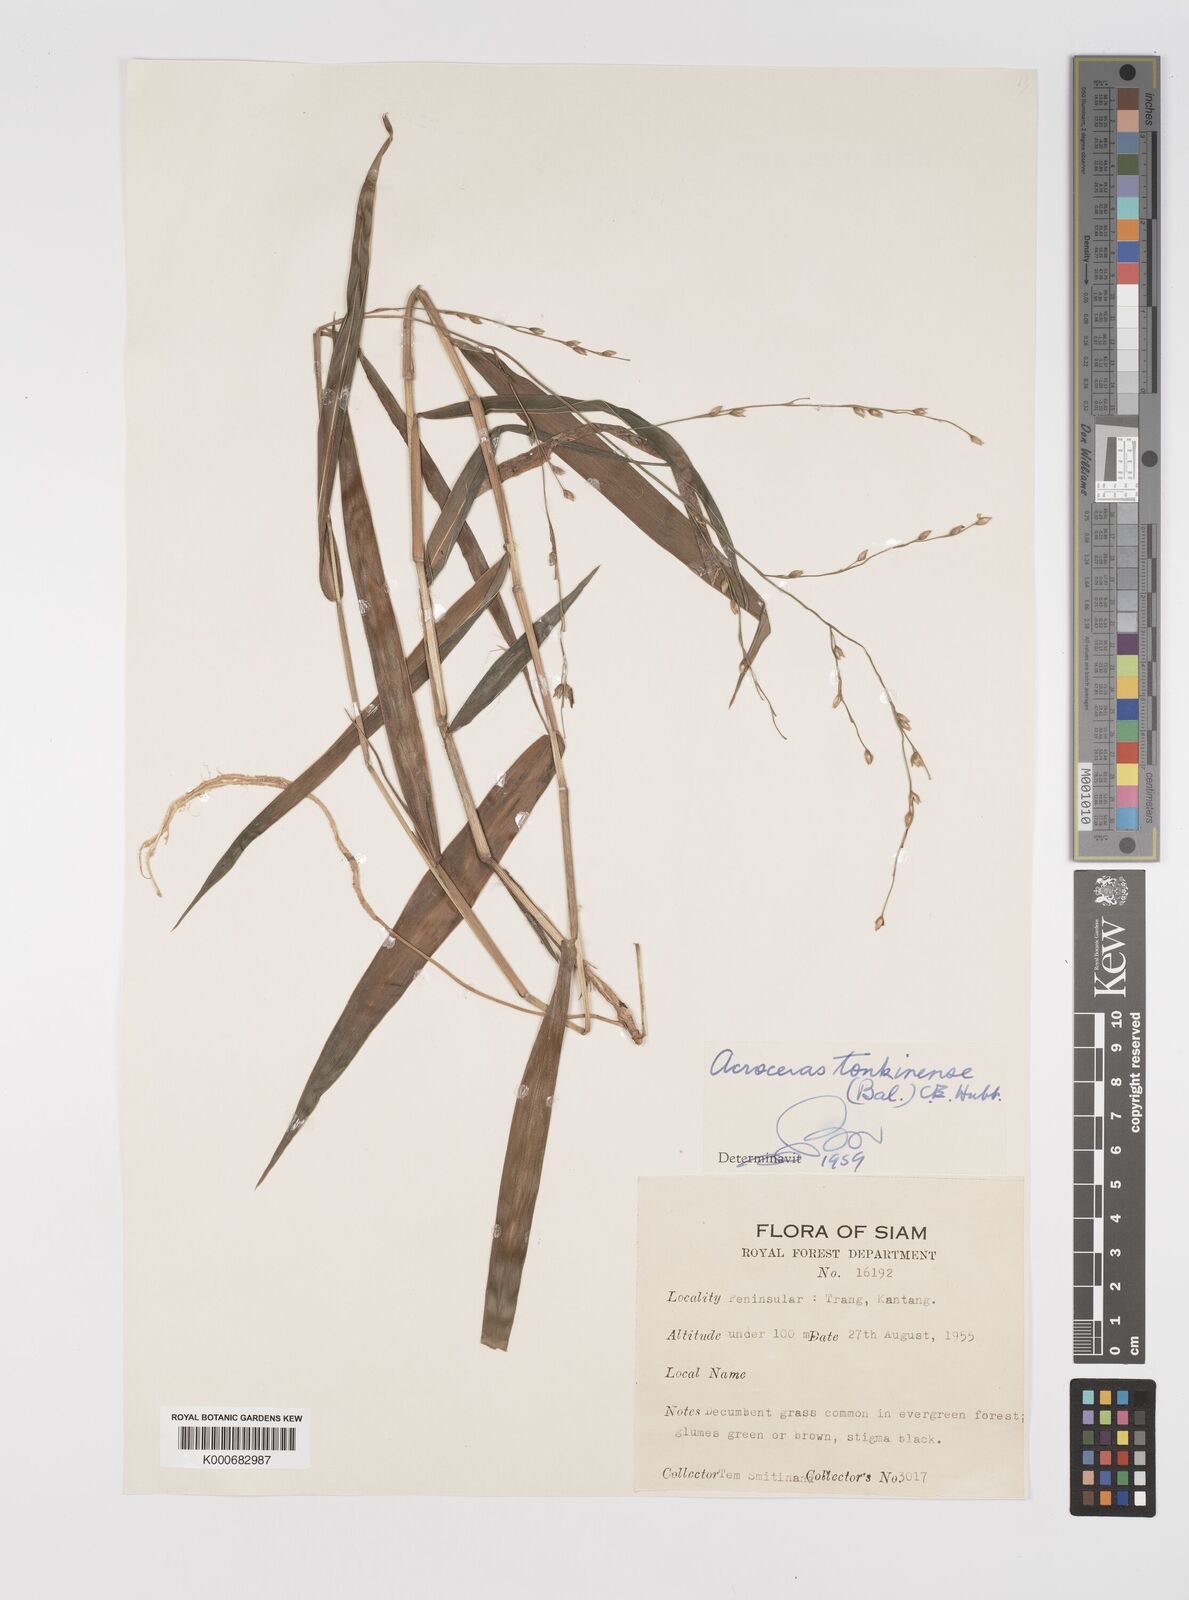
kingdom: Plantae
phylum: Tracheophyta
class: Liliopsida
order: Poales
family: Poaceae
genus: Acroceras
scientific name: Acroceras
